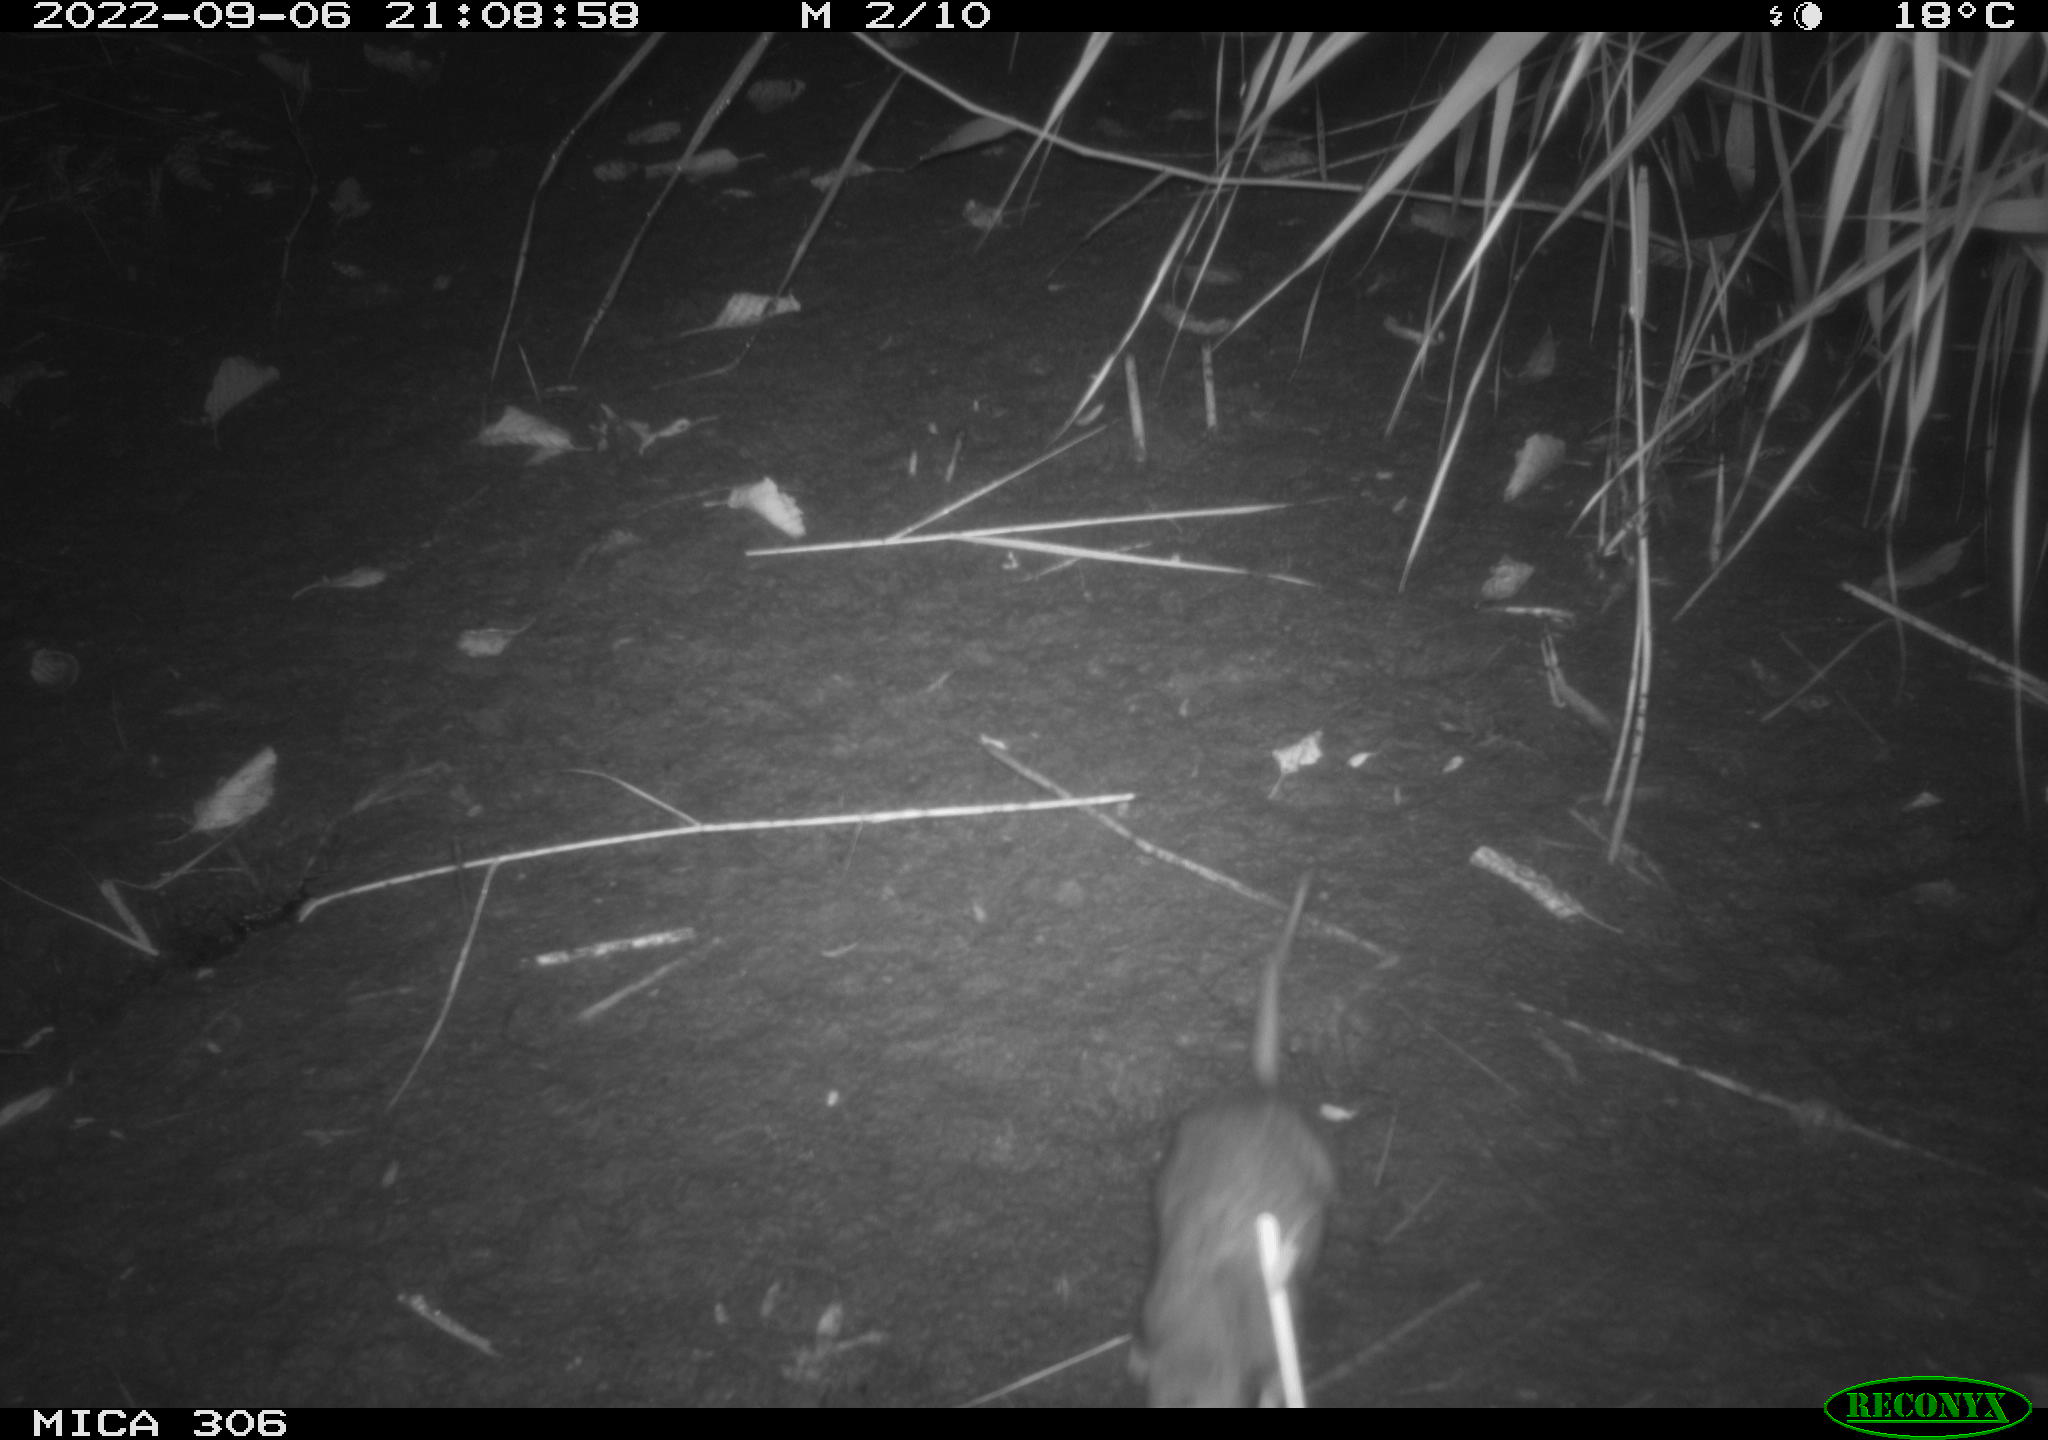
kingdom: Animalia
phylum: Chordata
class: Mammalia
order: Rodentia
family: Muridae
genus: Rattus
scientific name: Rattus norvegicus
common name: Brown rat
